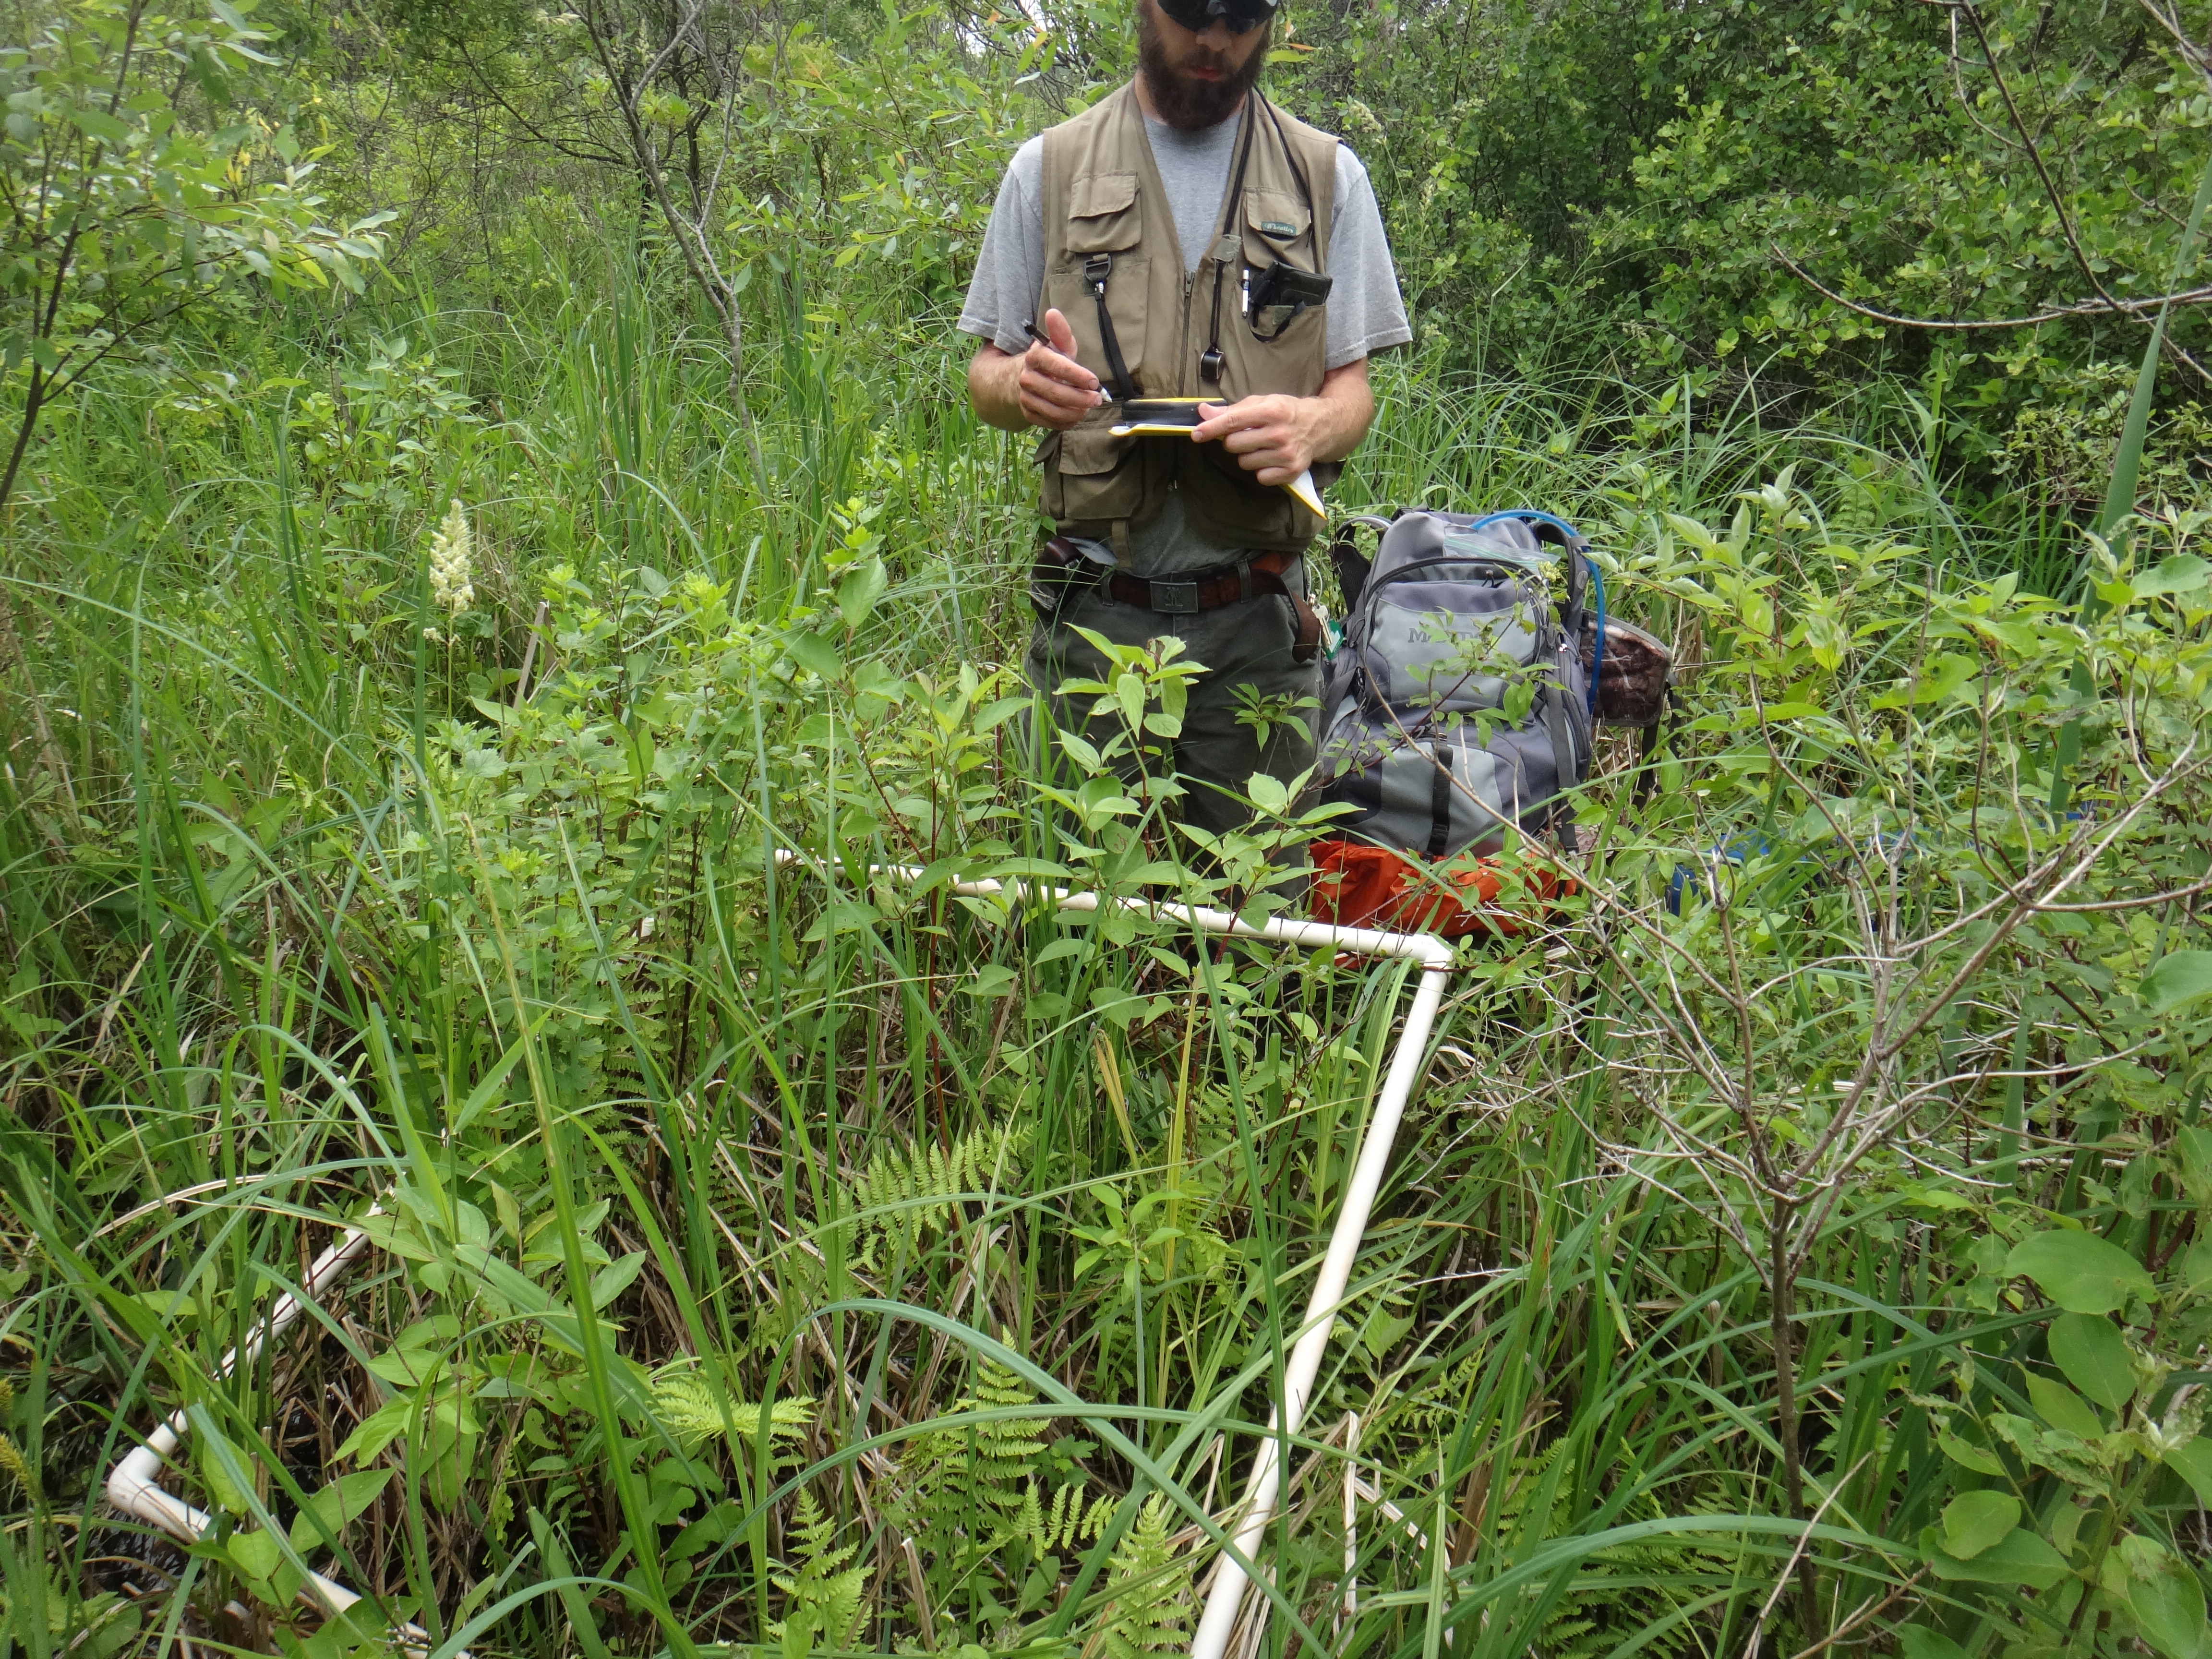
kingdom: Plantae
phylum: Tracheophyta
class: Magnoliopsida
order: Saxifragales
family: Grossulariaceae
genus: Ribes
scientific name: Ribes hirtellum
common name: Hairy gooseberry
